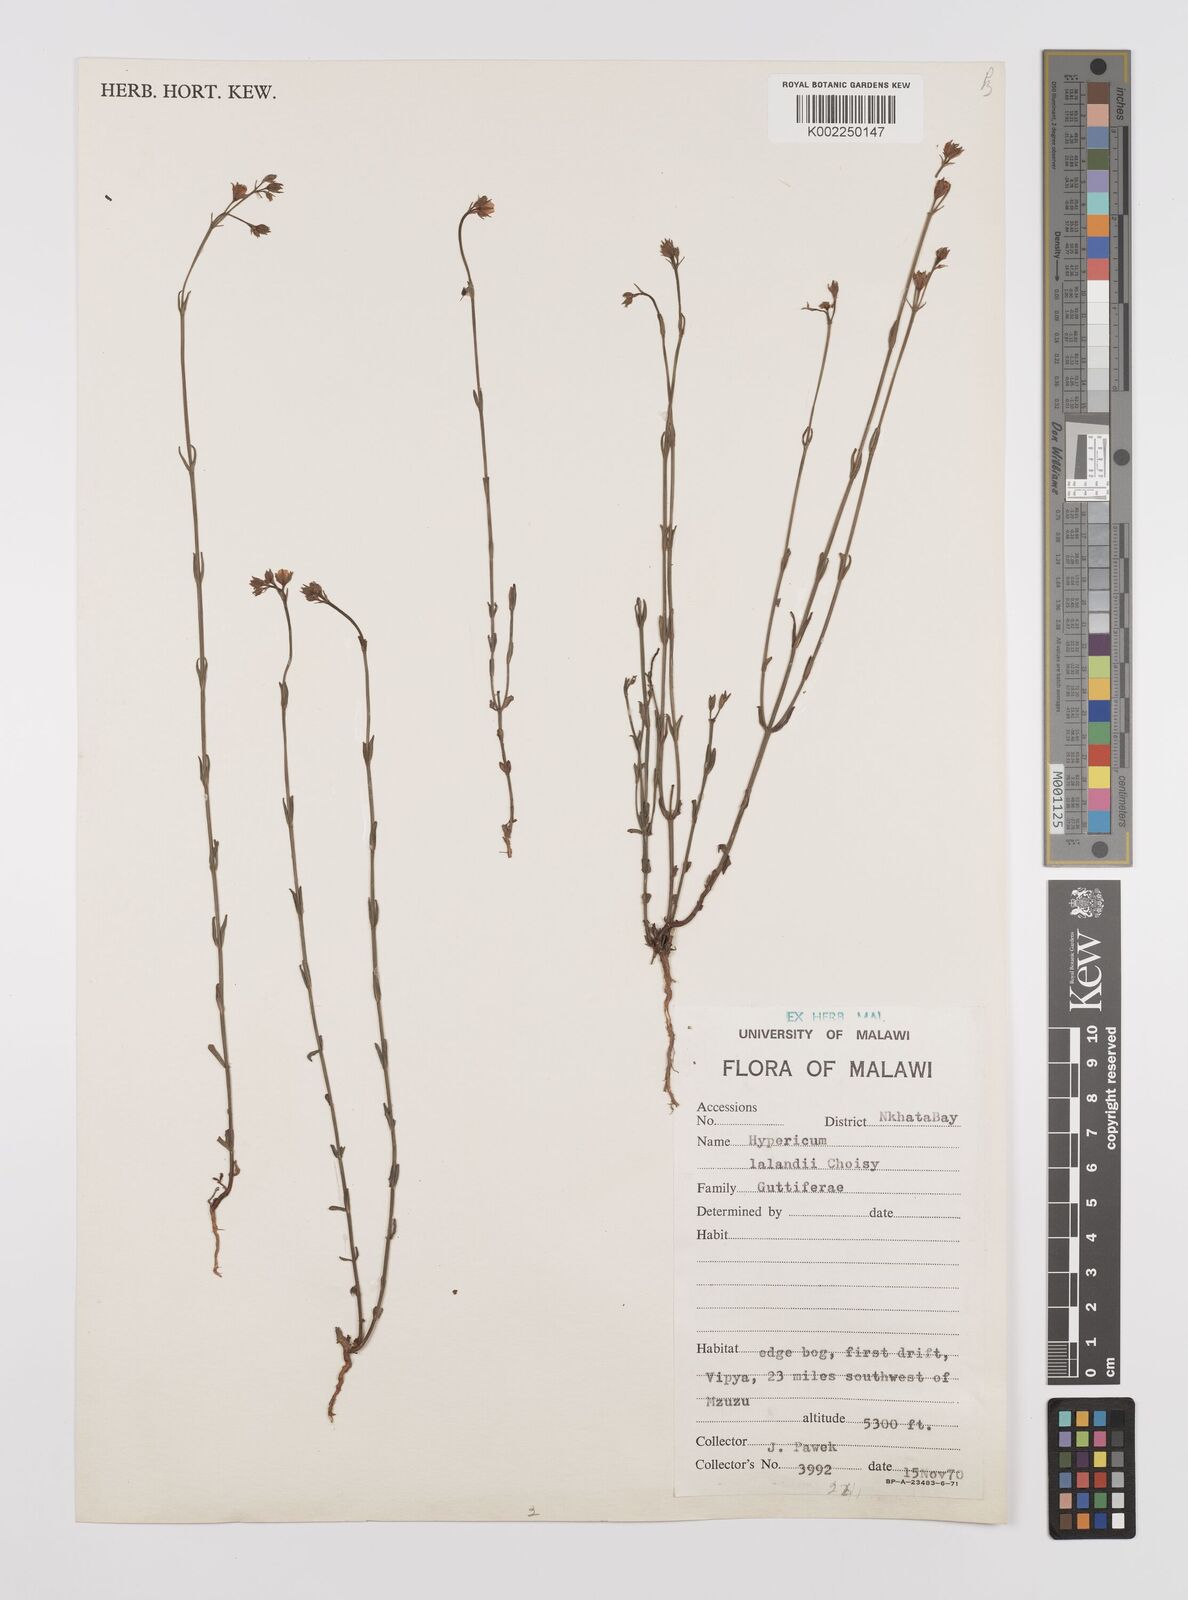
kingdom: Plantae
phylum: Tracheophyta
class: Magnoliopsida
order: Malpighiales
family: Hypericaceae
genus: Hypericum
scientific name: Hypericum lalandii
